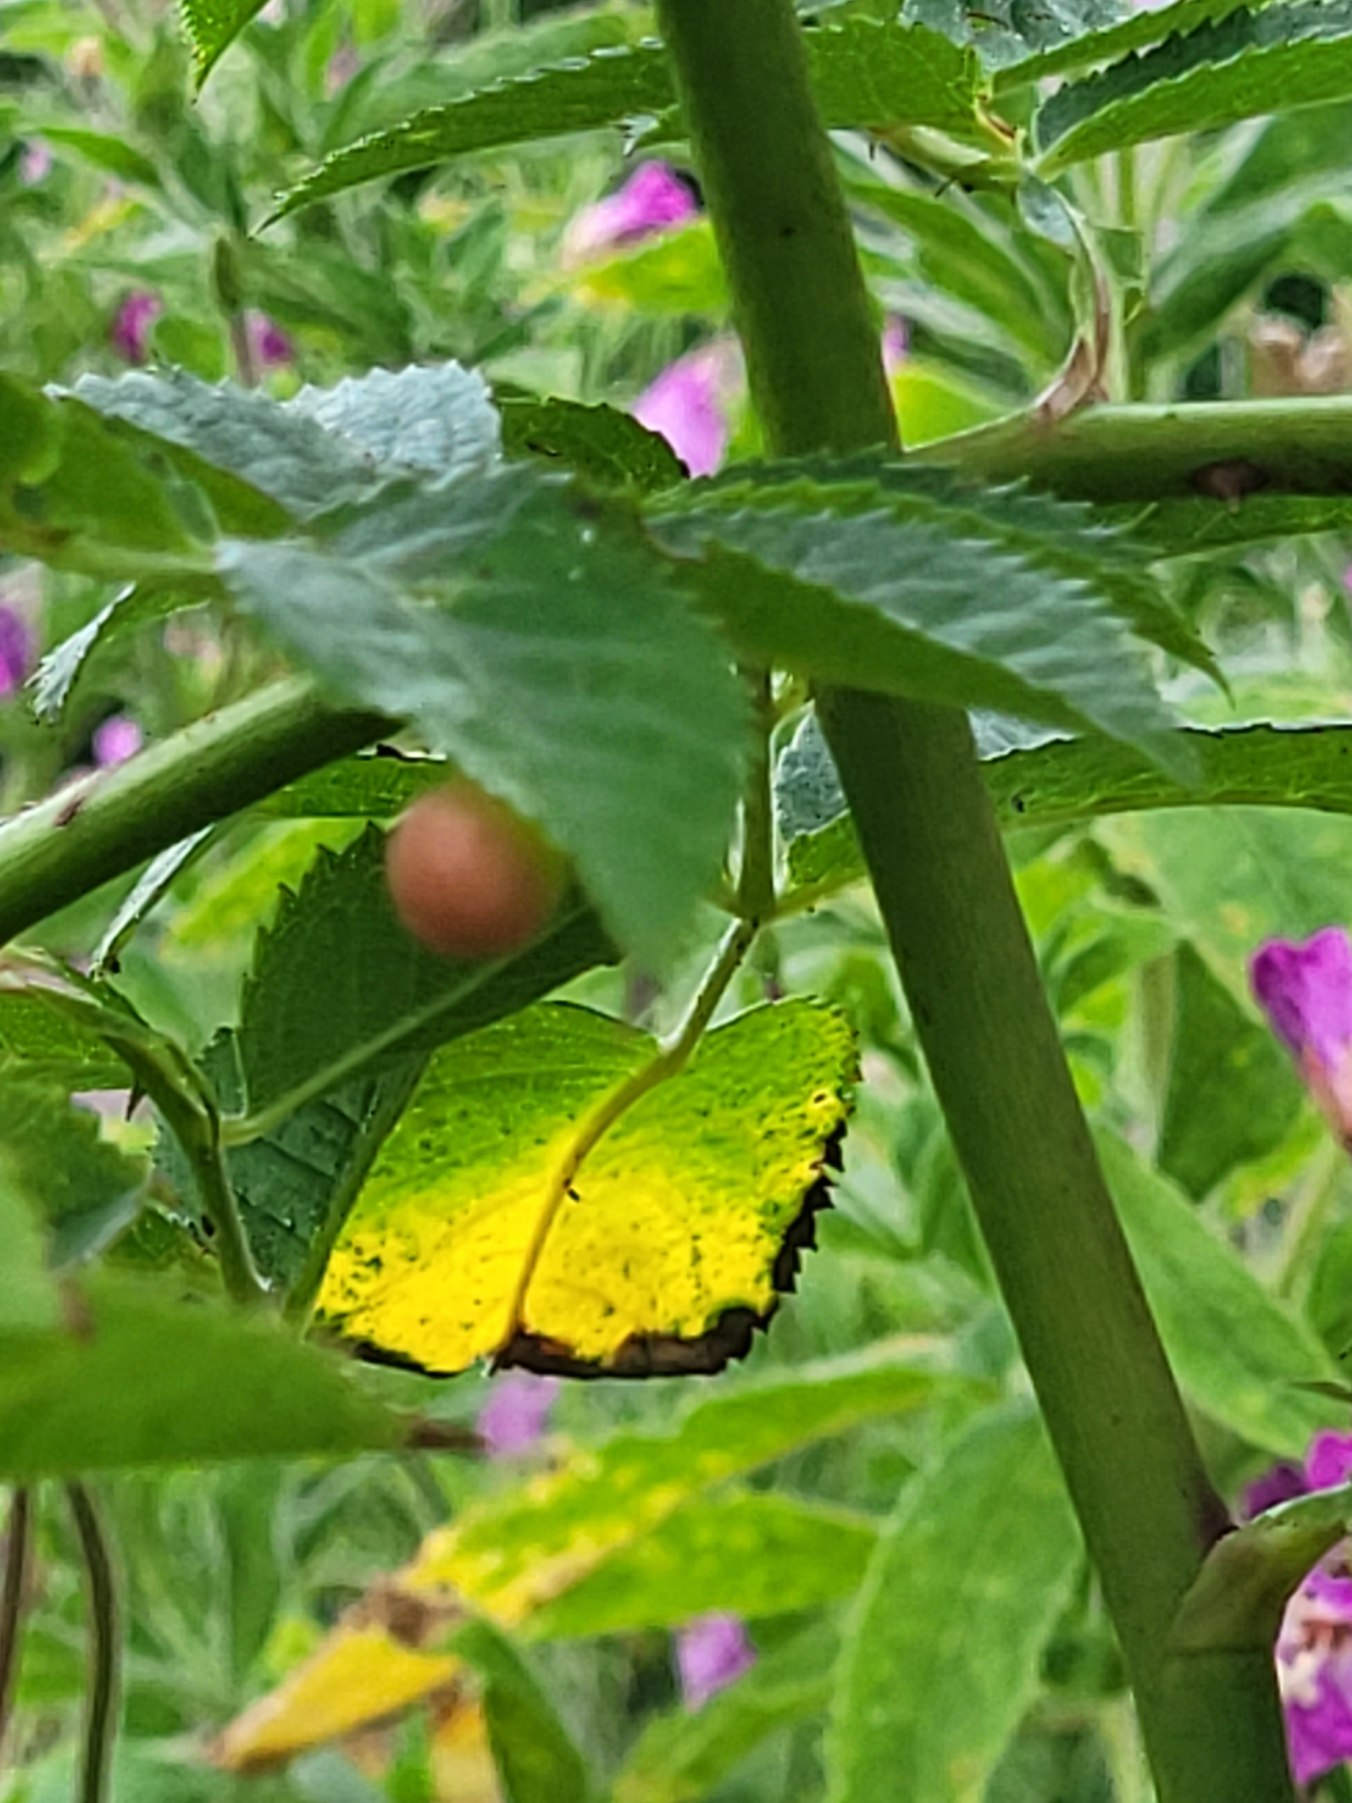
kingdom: Animalia
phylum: Arthropoda
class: Insecta
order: Hymenoptera
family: Cynipidae
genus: Diplolepis
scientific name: Diplolepis
